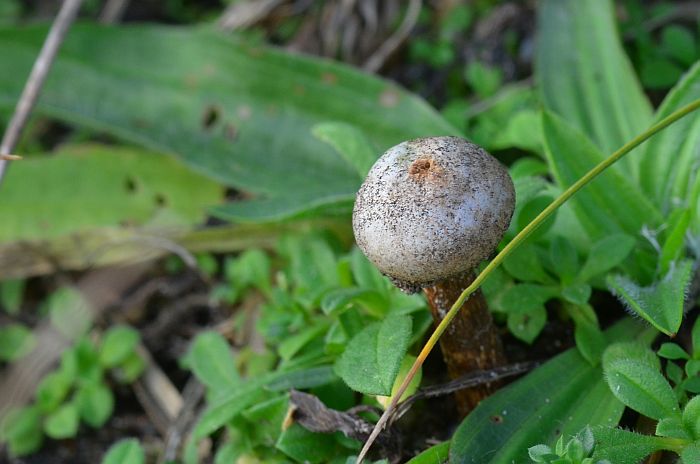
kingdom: Fungi
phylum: Basidiomycota
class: Agaricomycetes
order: Agaricales
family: Agaricaceae
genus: Tulostoma
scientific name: Tulostoma fimbriatum
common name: frynset stilkbovist
